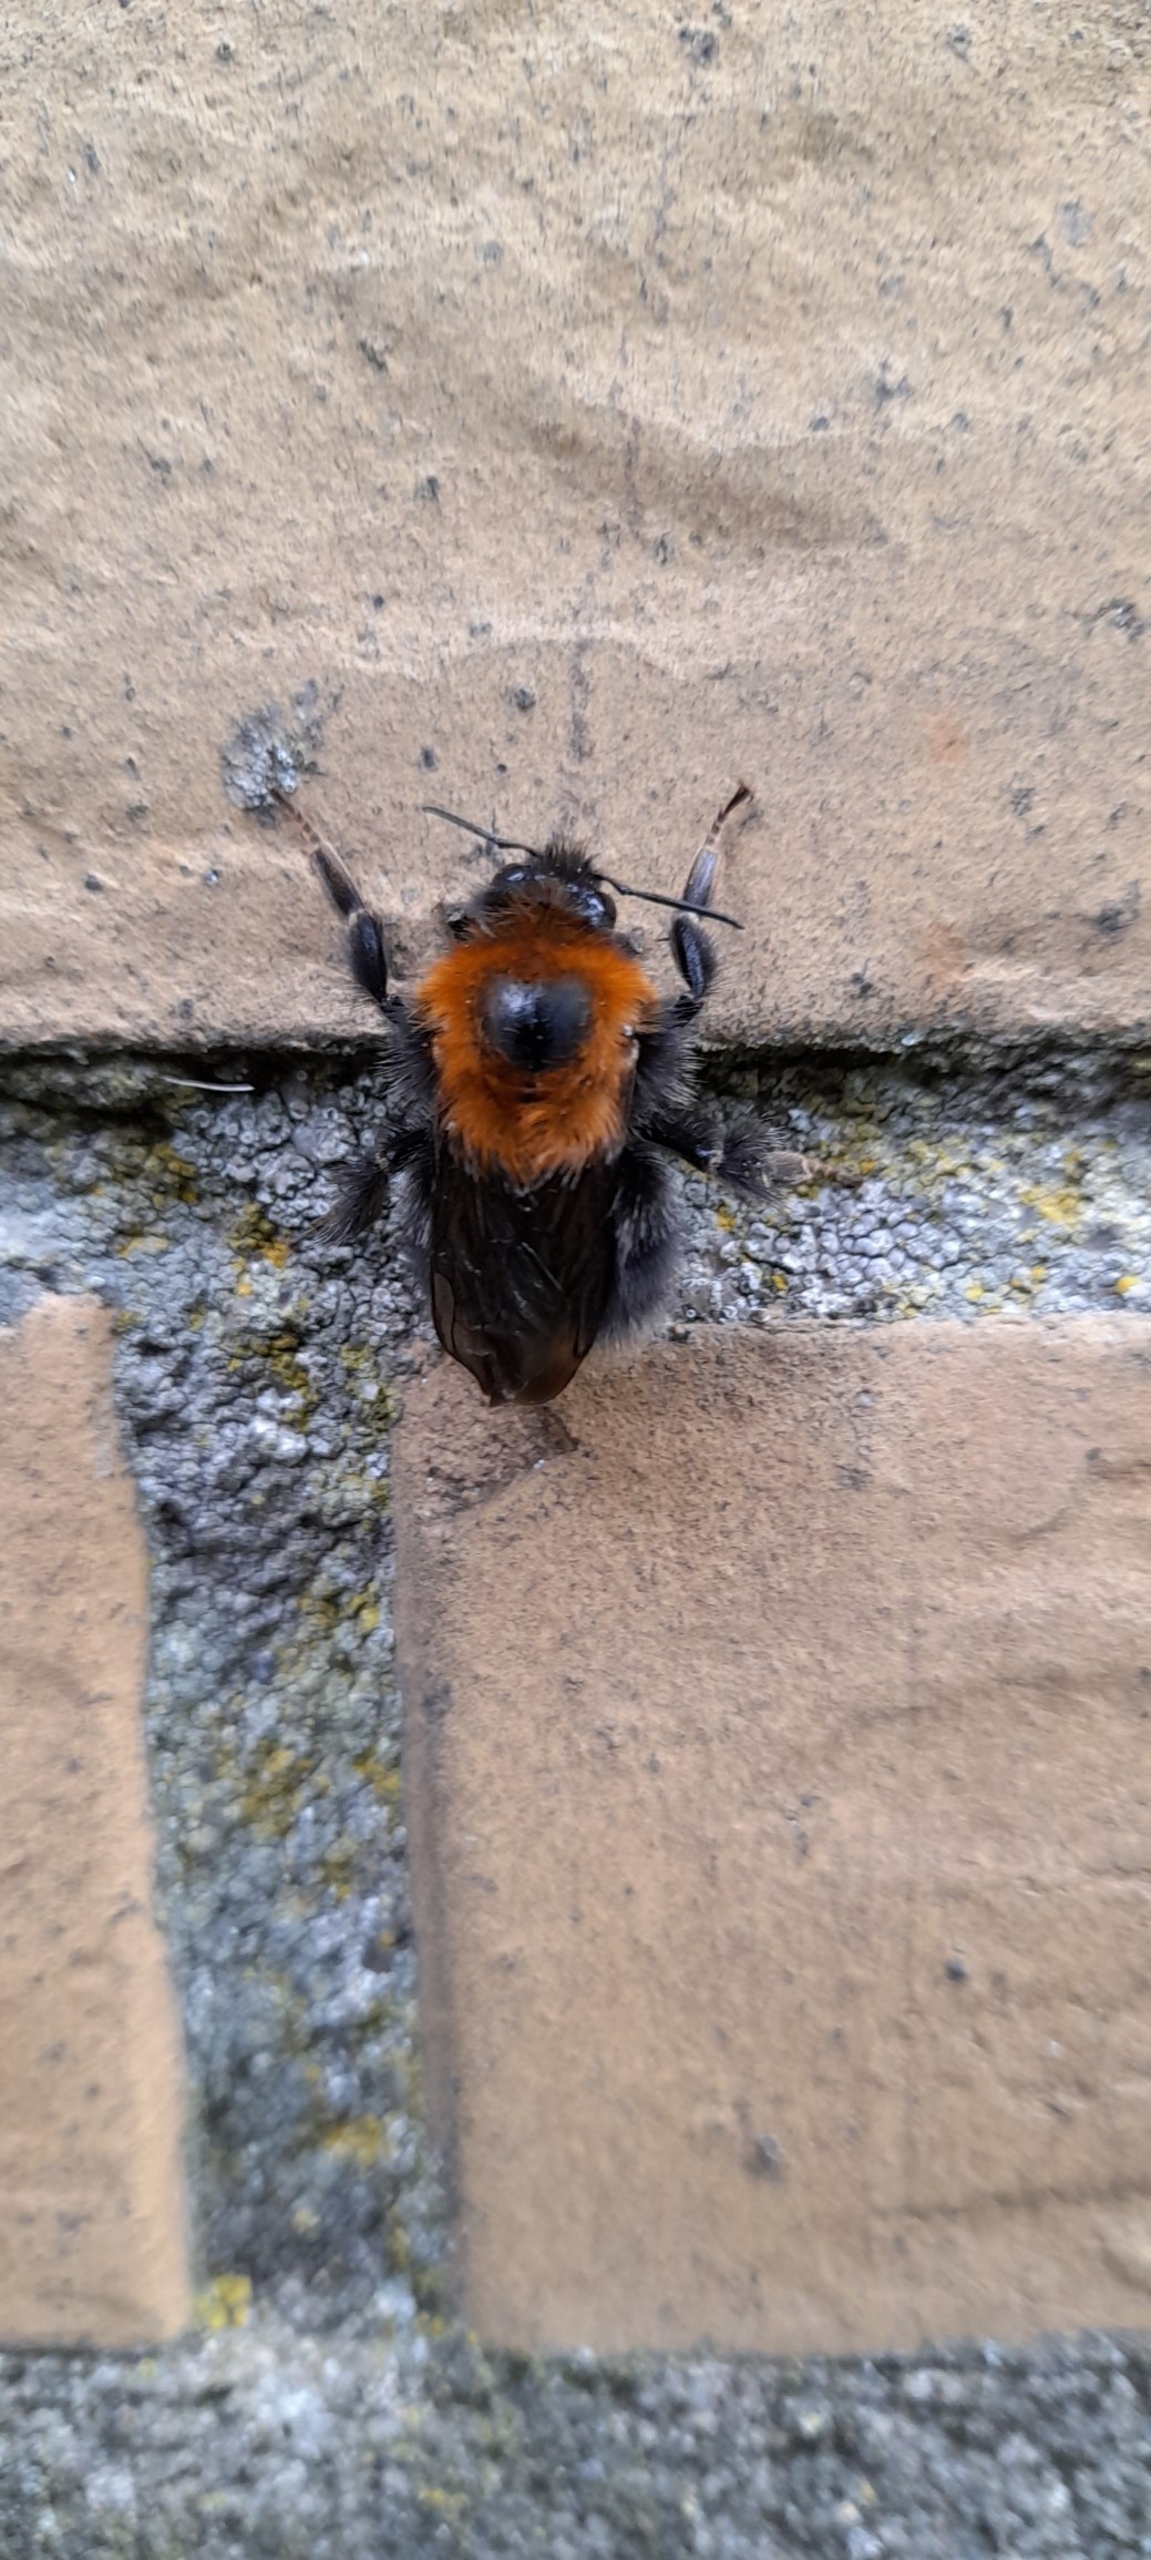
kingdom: Animalia
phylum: Arthropoda
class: Insecta
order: Hymenoptera
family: Apidae
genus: Bombus
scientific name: Bombus hypnorum
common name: Hushumle
